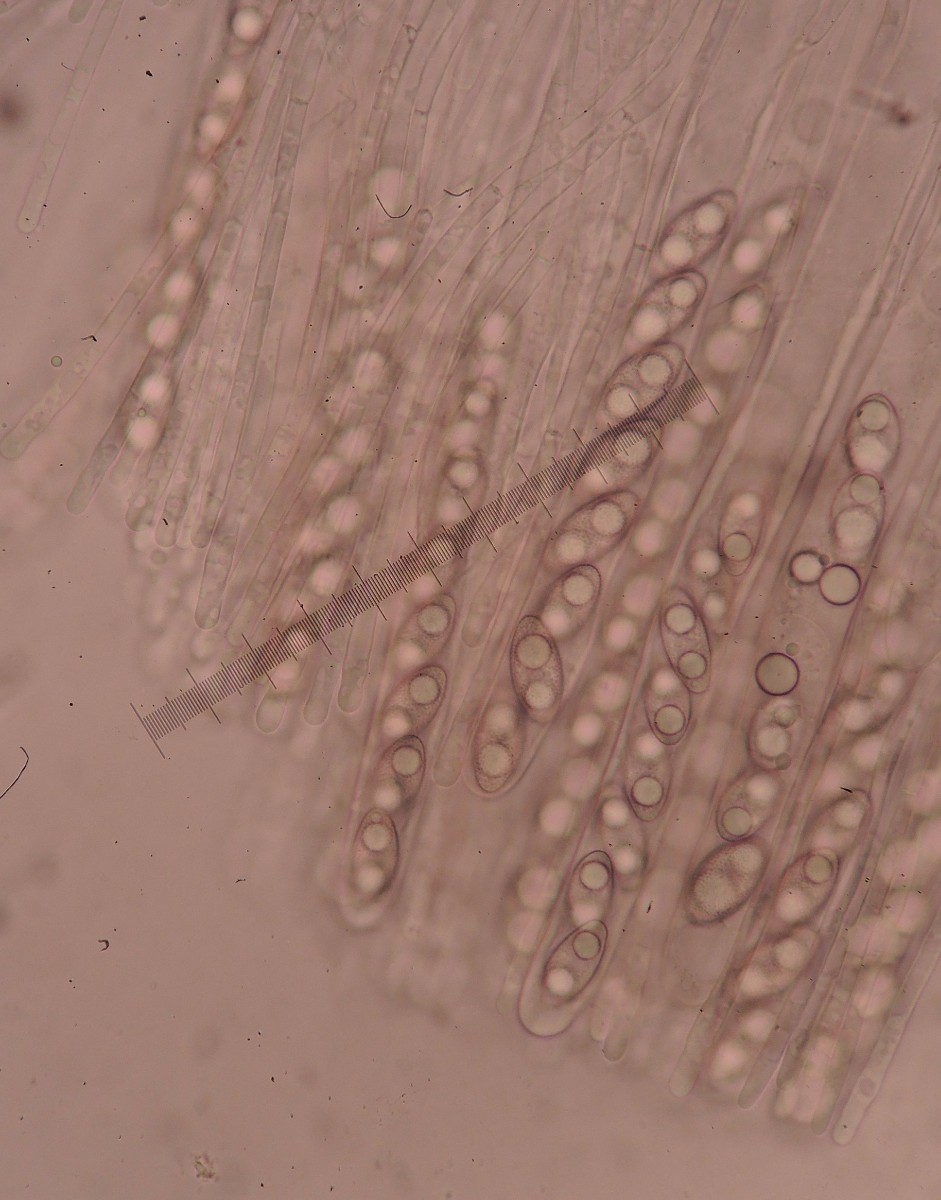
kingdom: Fungi
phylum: Ascomycota
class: Pezizomycetes
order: Pezizales
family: Pyronemataceae
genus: Leucoscypha
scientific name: Leucoscypha leucotricha
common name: smuk hvidbæger
